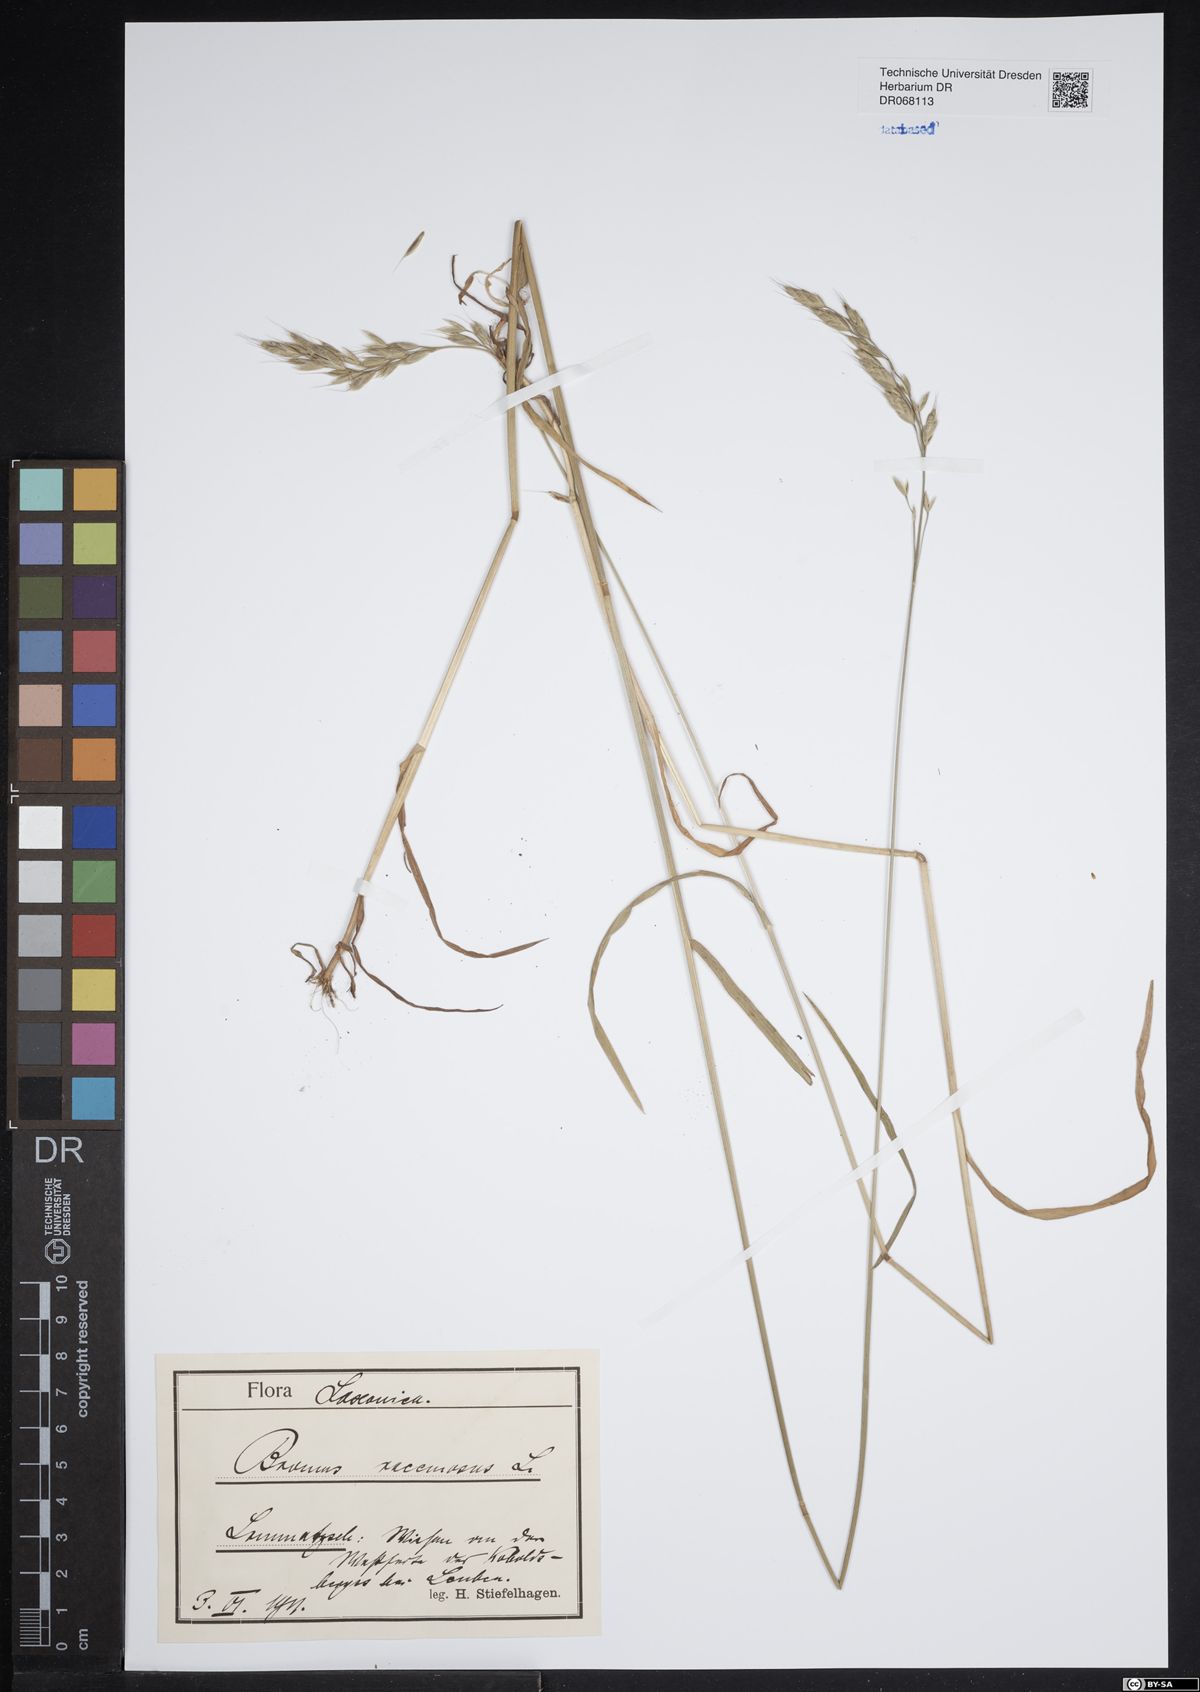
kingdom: Plantae
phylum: Tracheophyta
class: Liliopsida
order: Poales
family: Poaceae
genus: Bromus
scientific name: Bromus racemosus
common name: Bald brome
